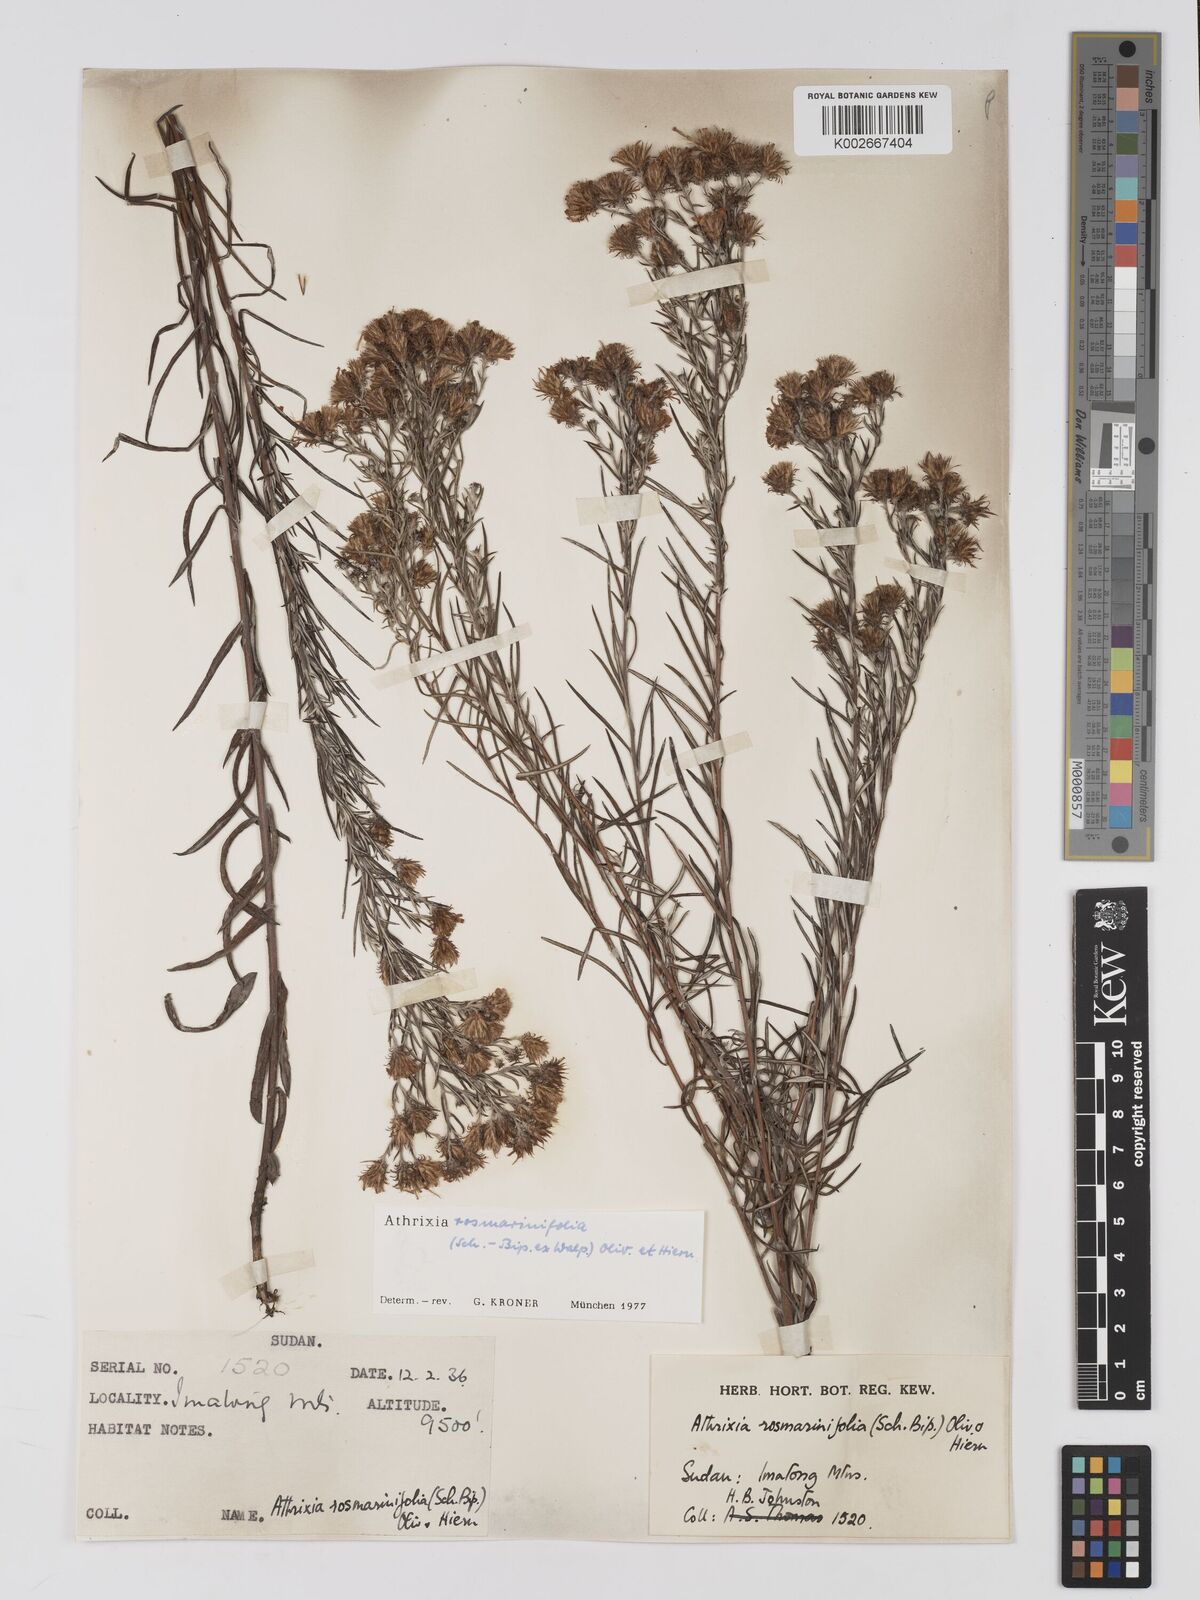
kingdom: Plantae
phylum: Tracheophyta
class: Magnoliopsida
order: Asterales
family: Asteraceae
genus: Athrixia
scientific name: Athrixia rosmarinifolia
